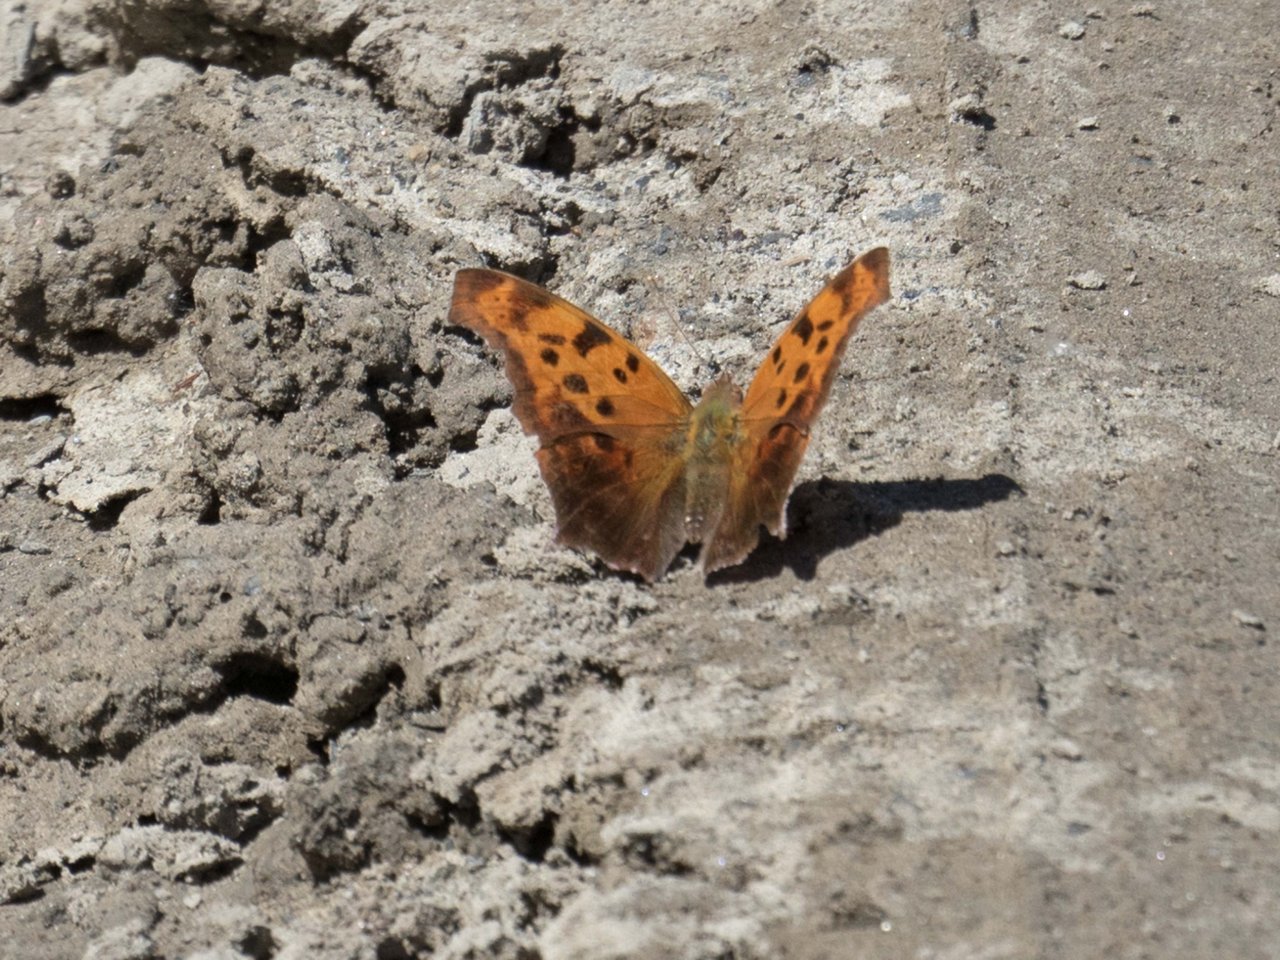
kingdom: Animalia
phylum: Arthropoda
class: Insecta
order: Lepidoptera
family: Nymphalidae
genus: Polygonia
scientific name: Polygonia interrogationis
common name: Question Mark
